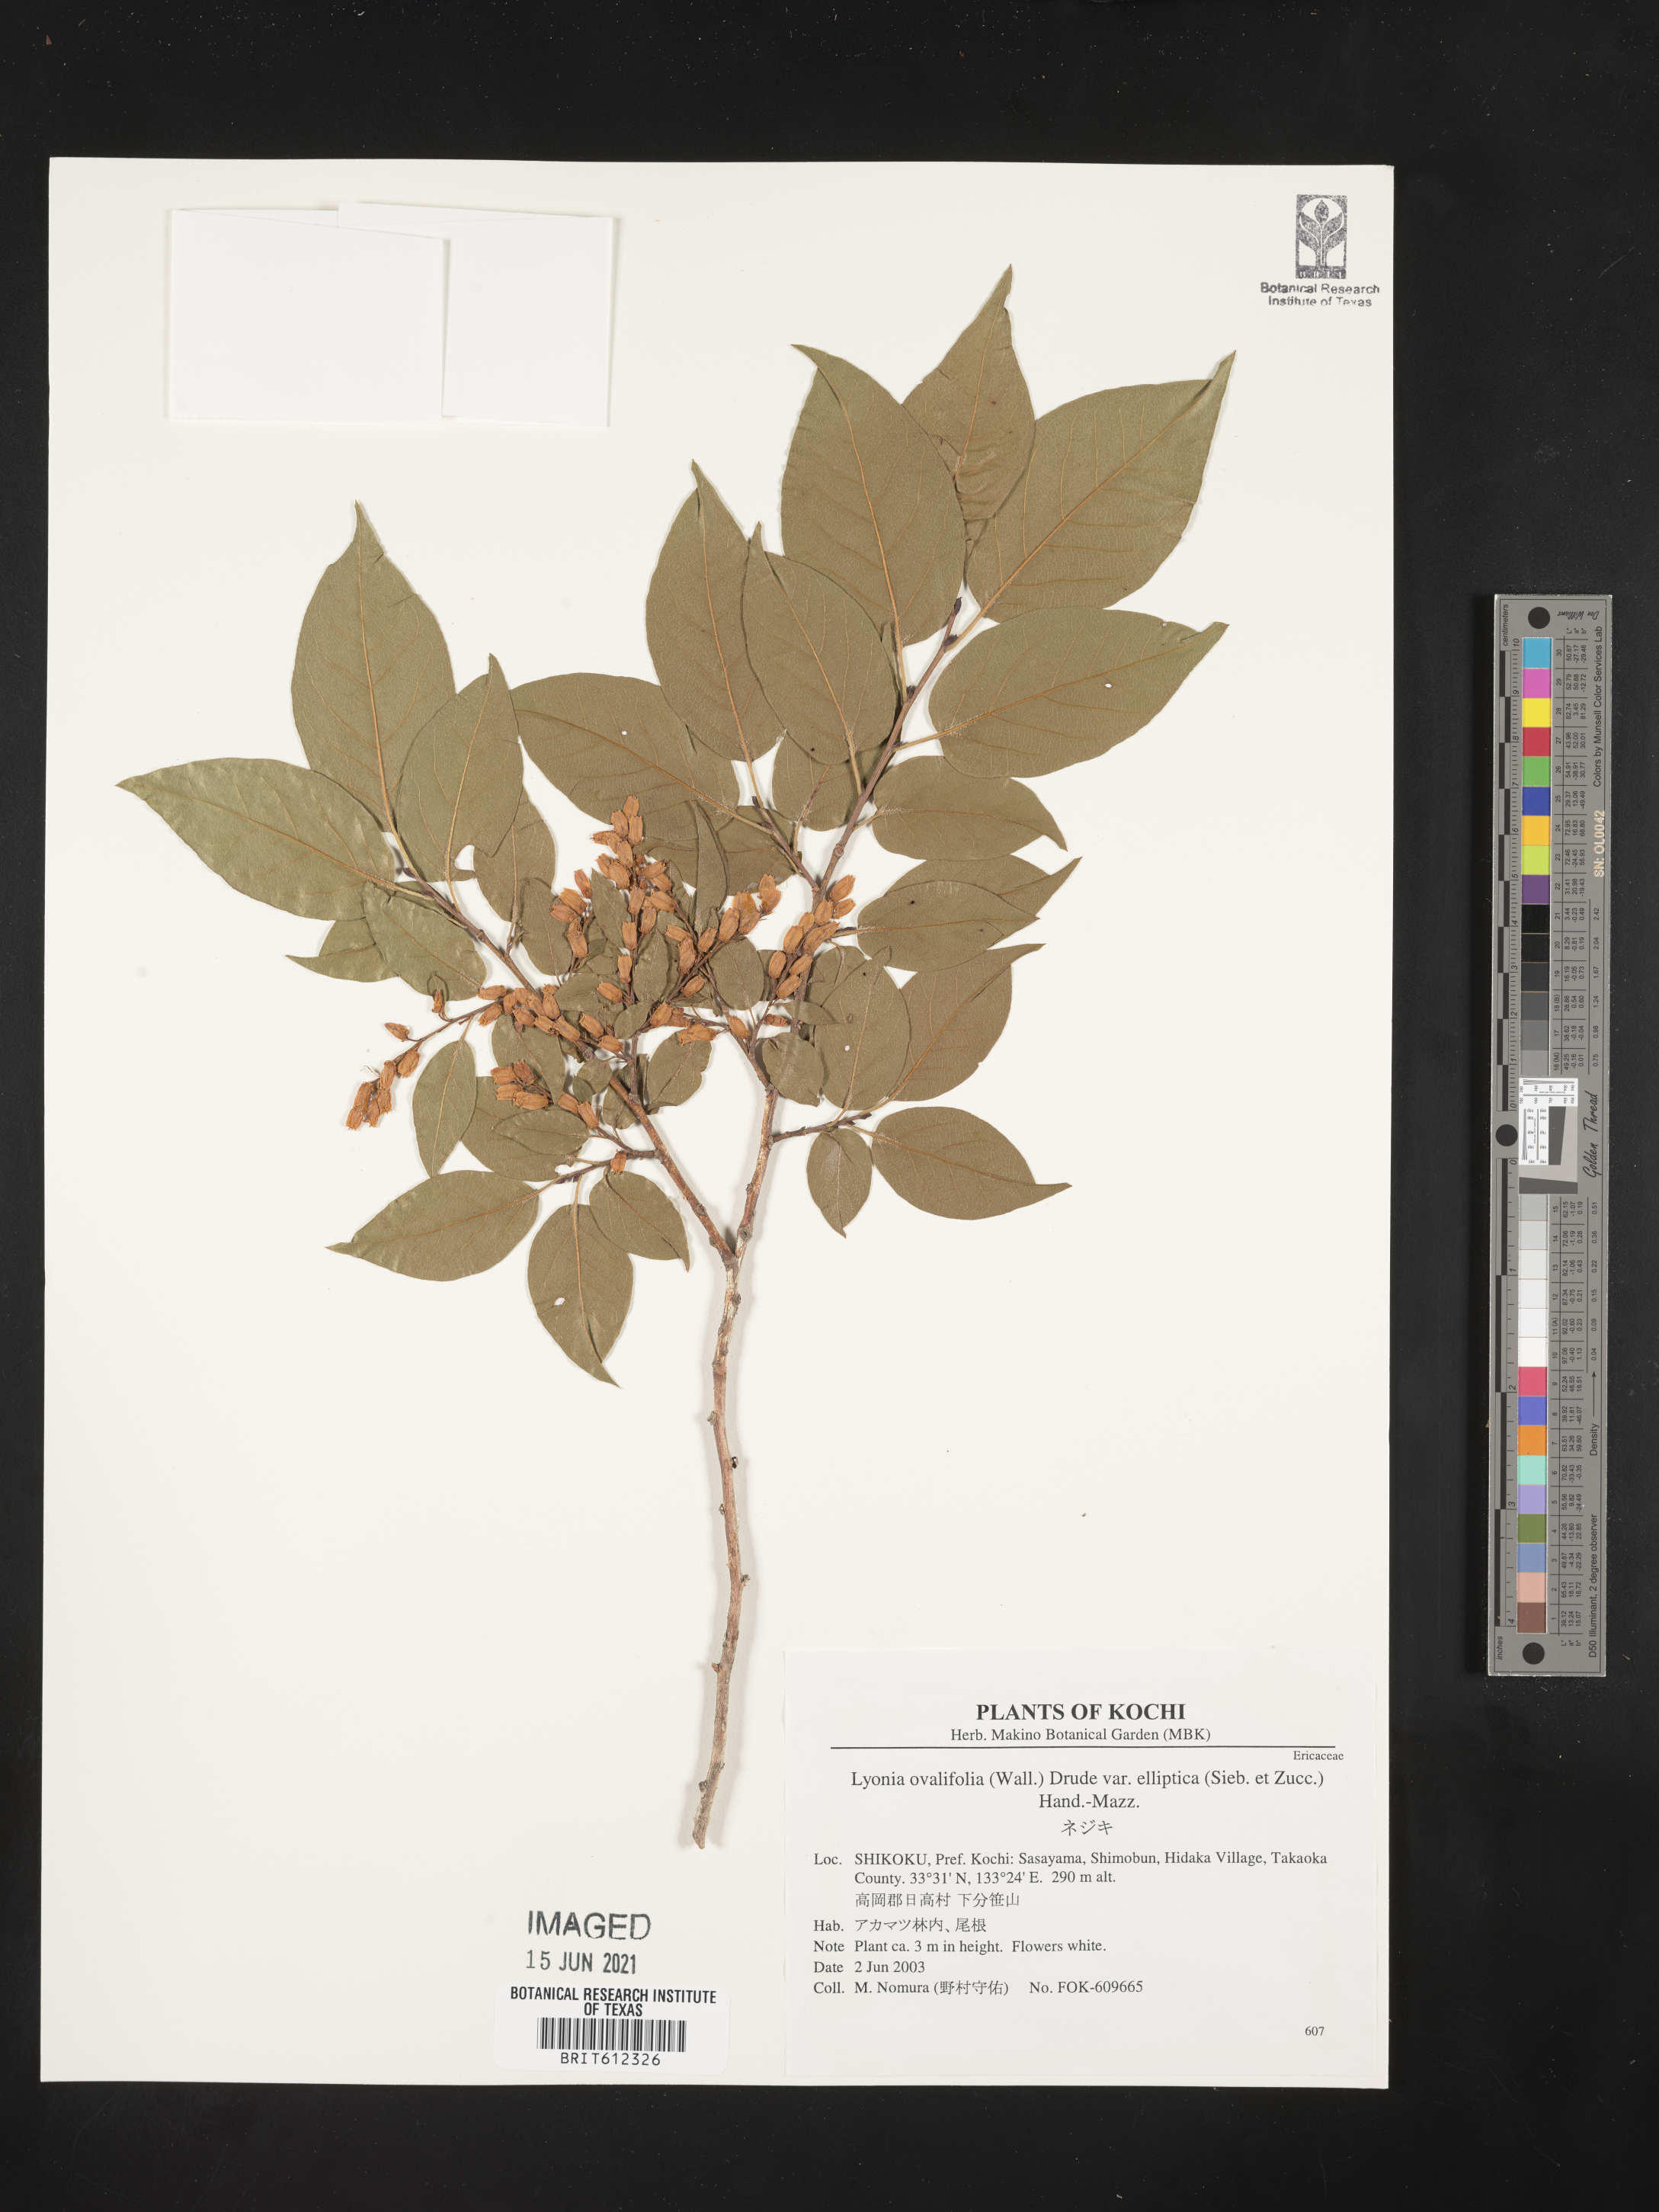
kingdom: Plantae
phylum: Tracheophyta
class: Magnoliopsida
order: Ericales
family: Ericaceae
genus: Lyonia
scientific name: Lyonia ovalifolia
